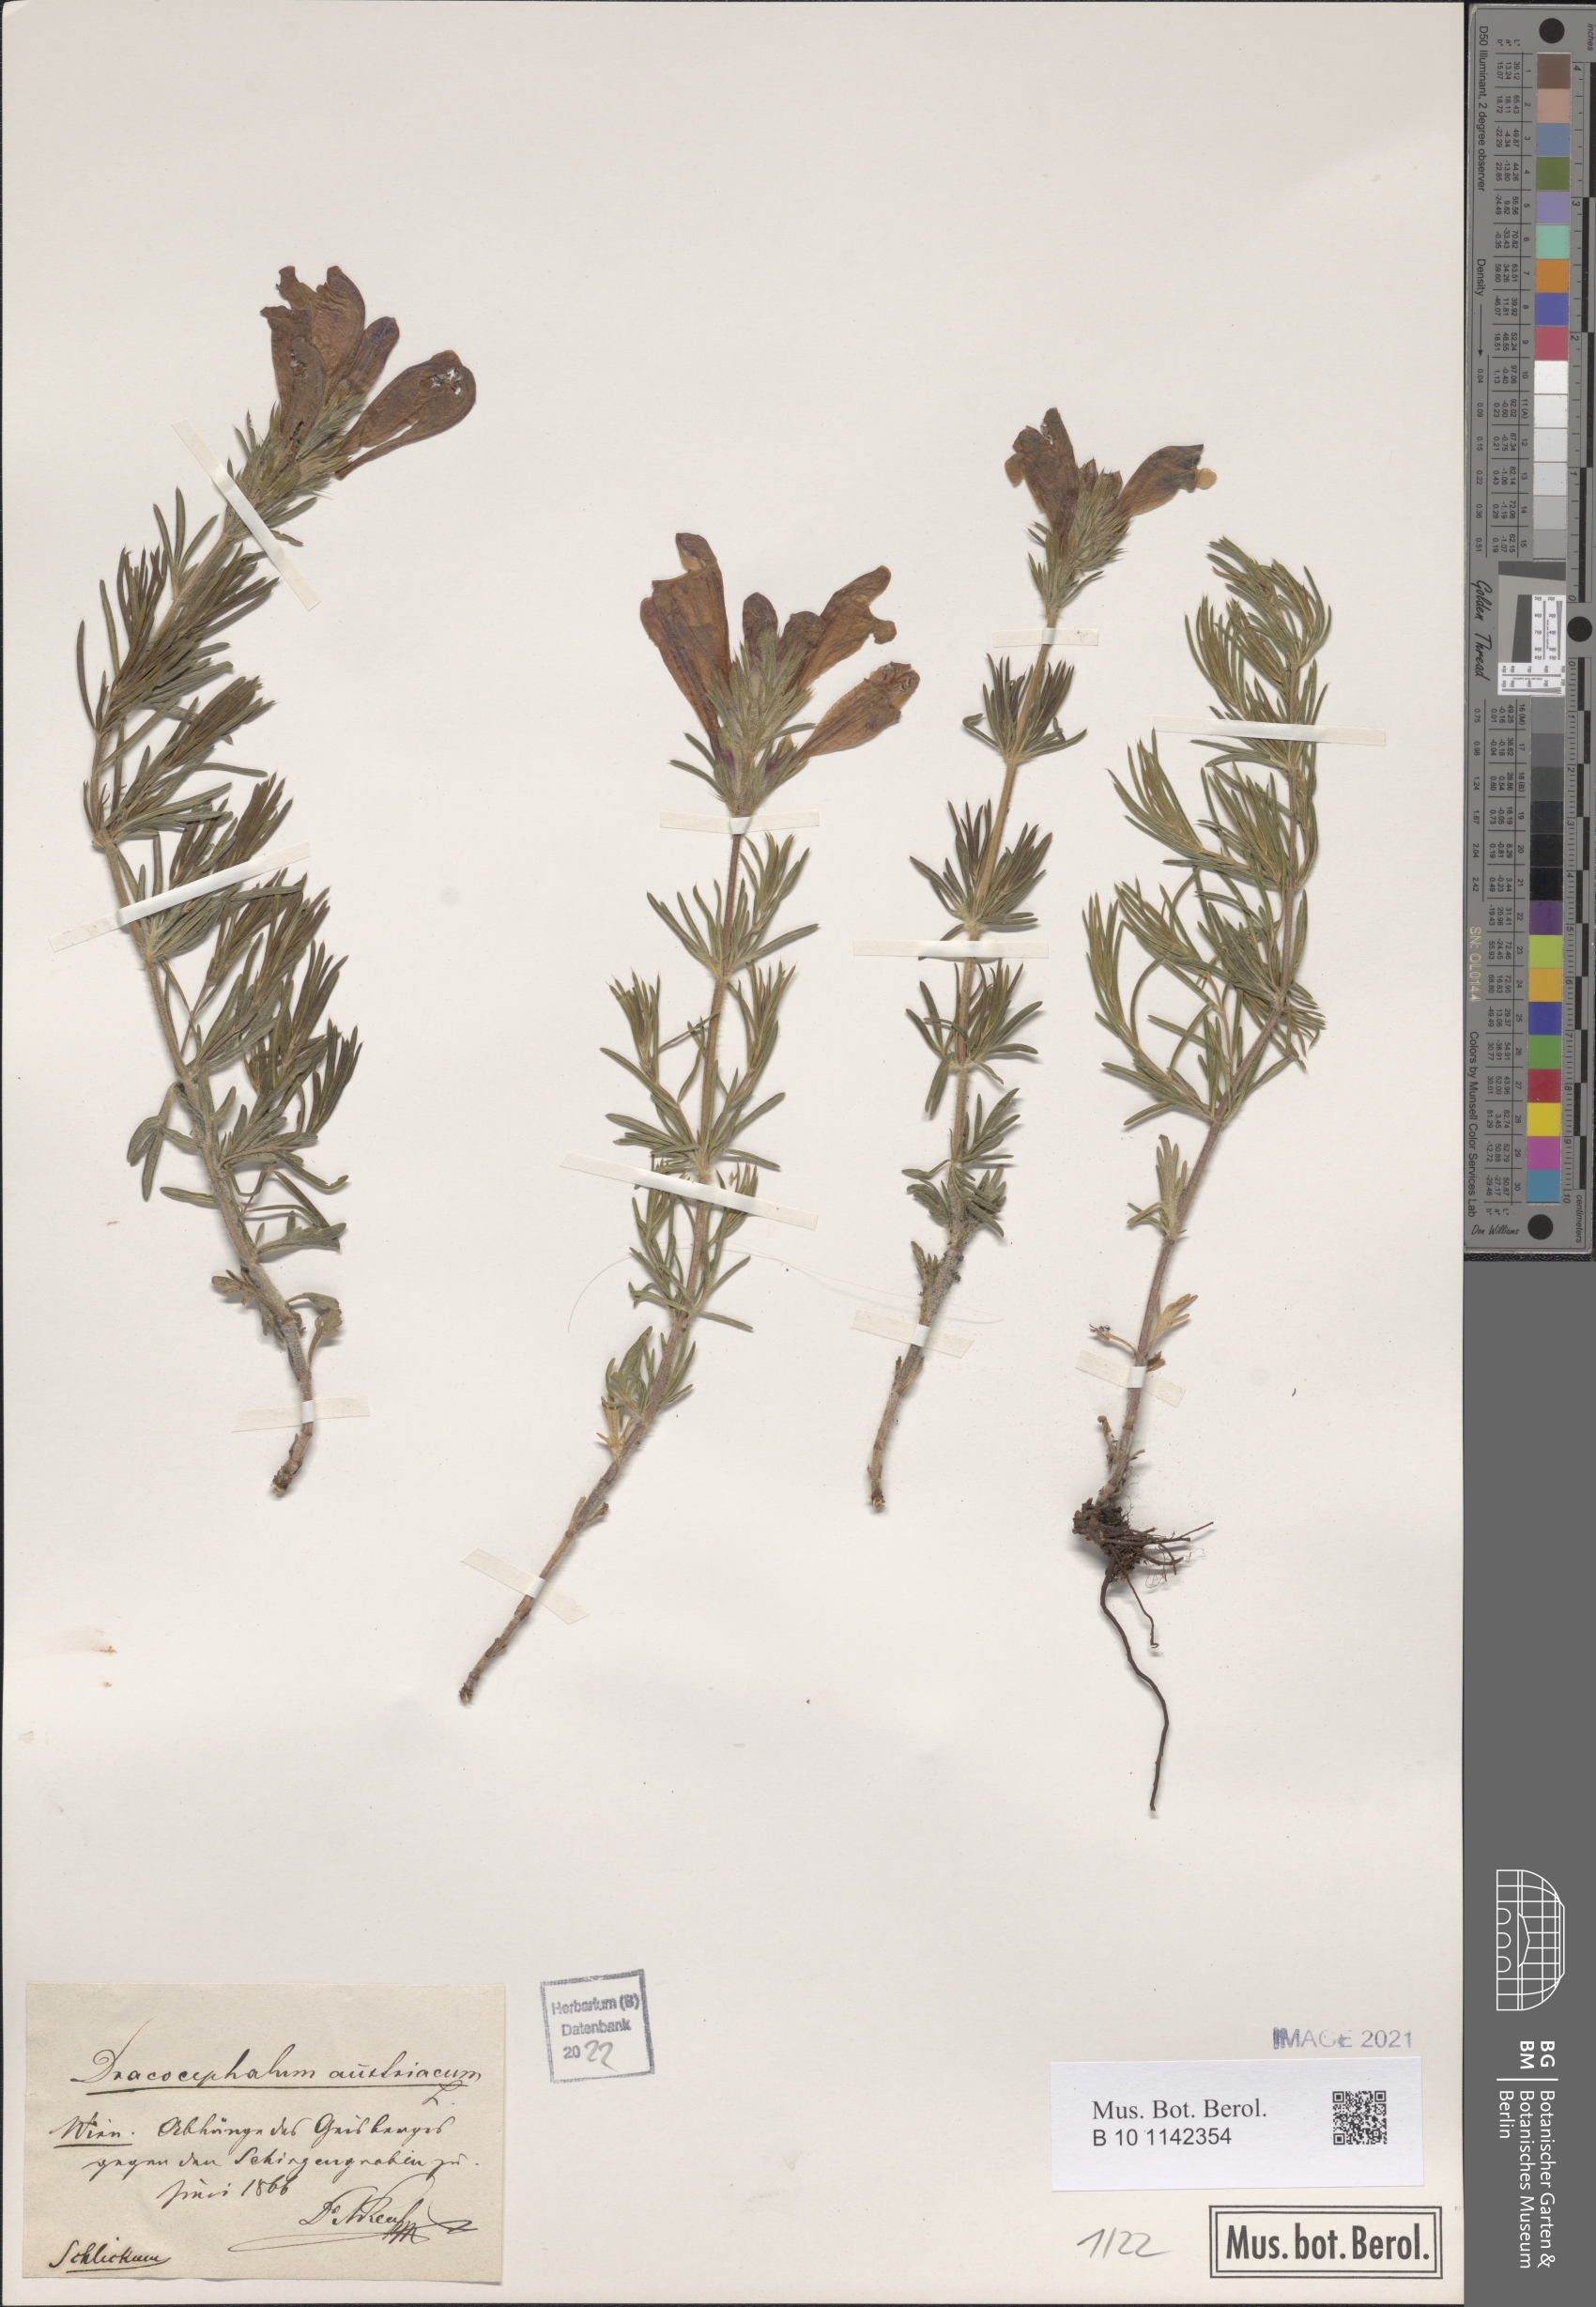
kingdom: Plantae
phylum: Tracheophyta
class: Magnoliopsida
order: Lamiales
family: Lamiaceae
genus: Dracocephalum
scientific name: Dracocephalum austriacum
